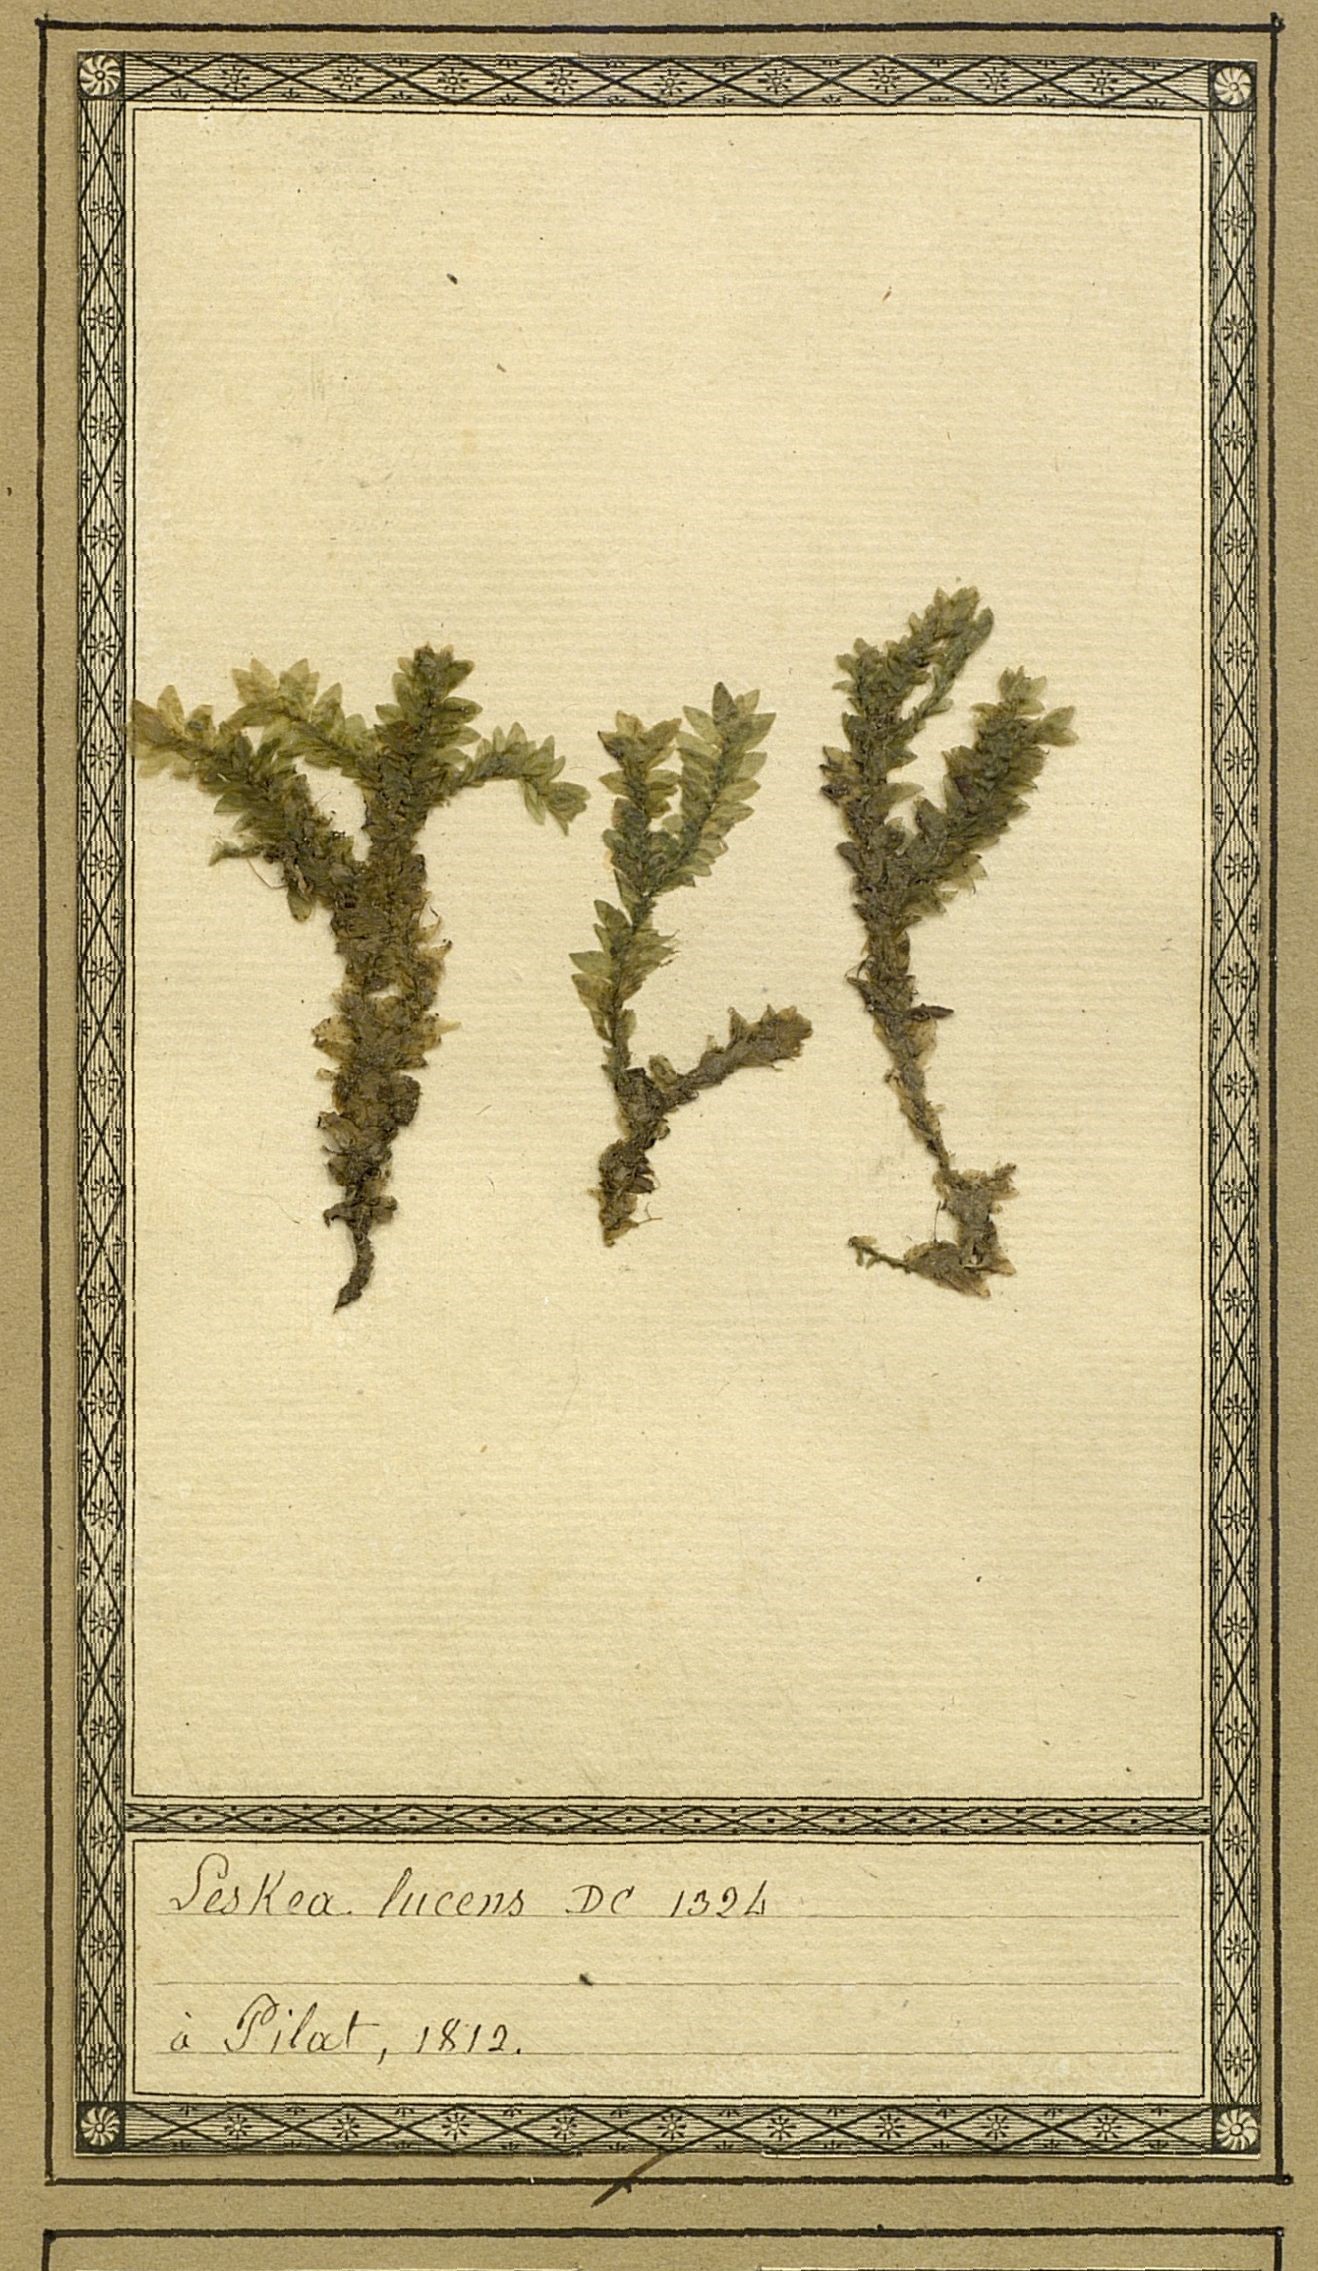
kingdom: Plantae
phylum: Bryophyta
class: Bryopsida
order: Hookeriales
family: Hookeriaceae
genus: Hookeria
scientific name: Hookeria lucens
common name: Shining hookeria
